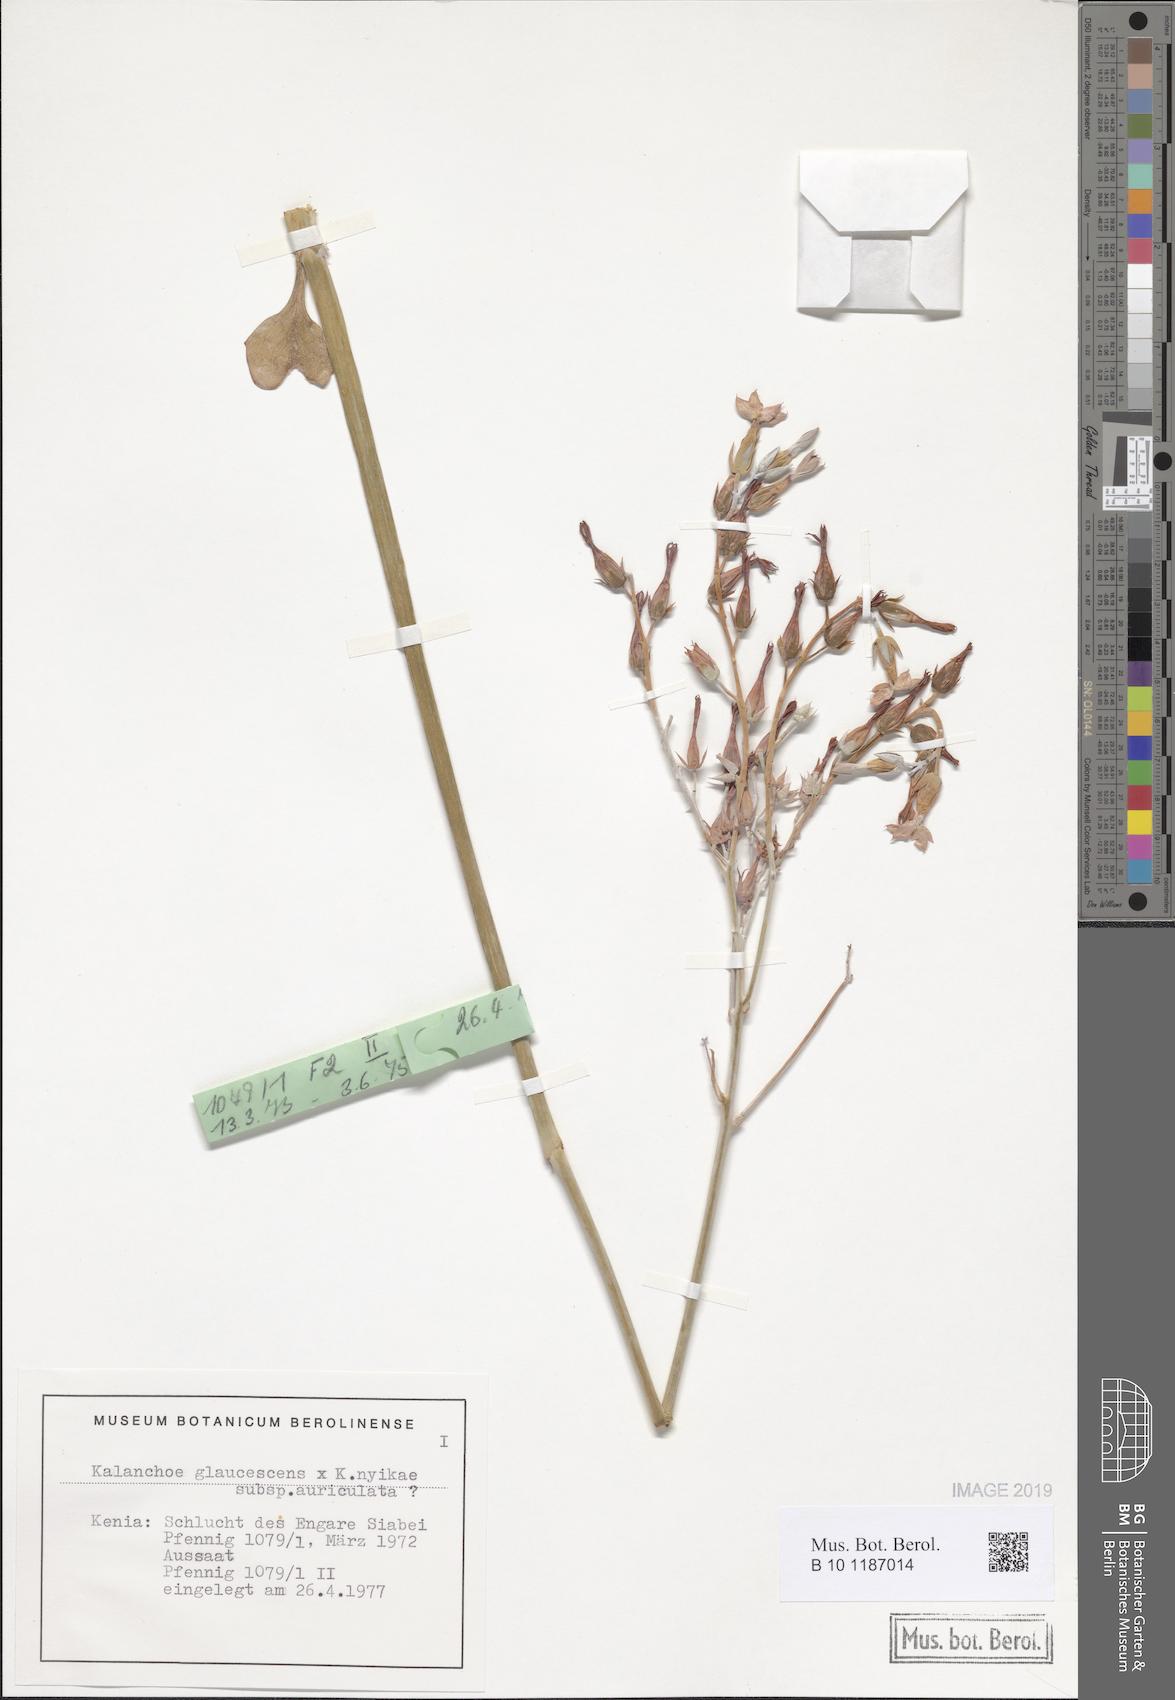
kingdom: Plantae
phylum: Tracheophyta
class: Magnoliopsida
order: Saxifragales
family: Crassulaceae
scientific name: Crassulaceae
